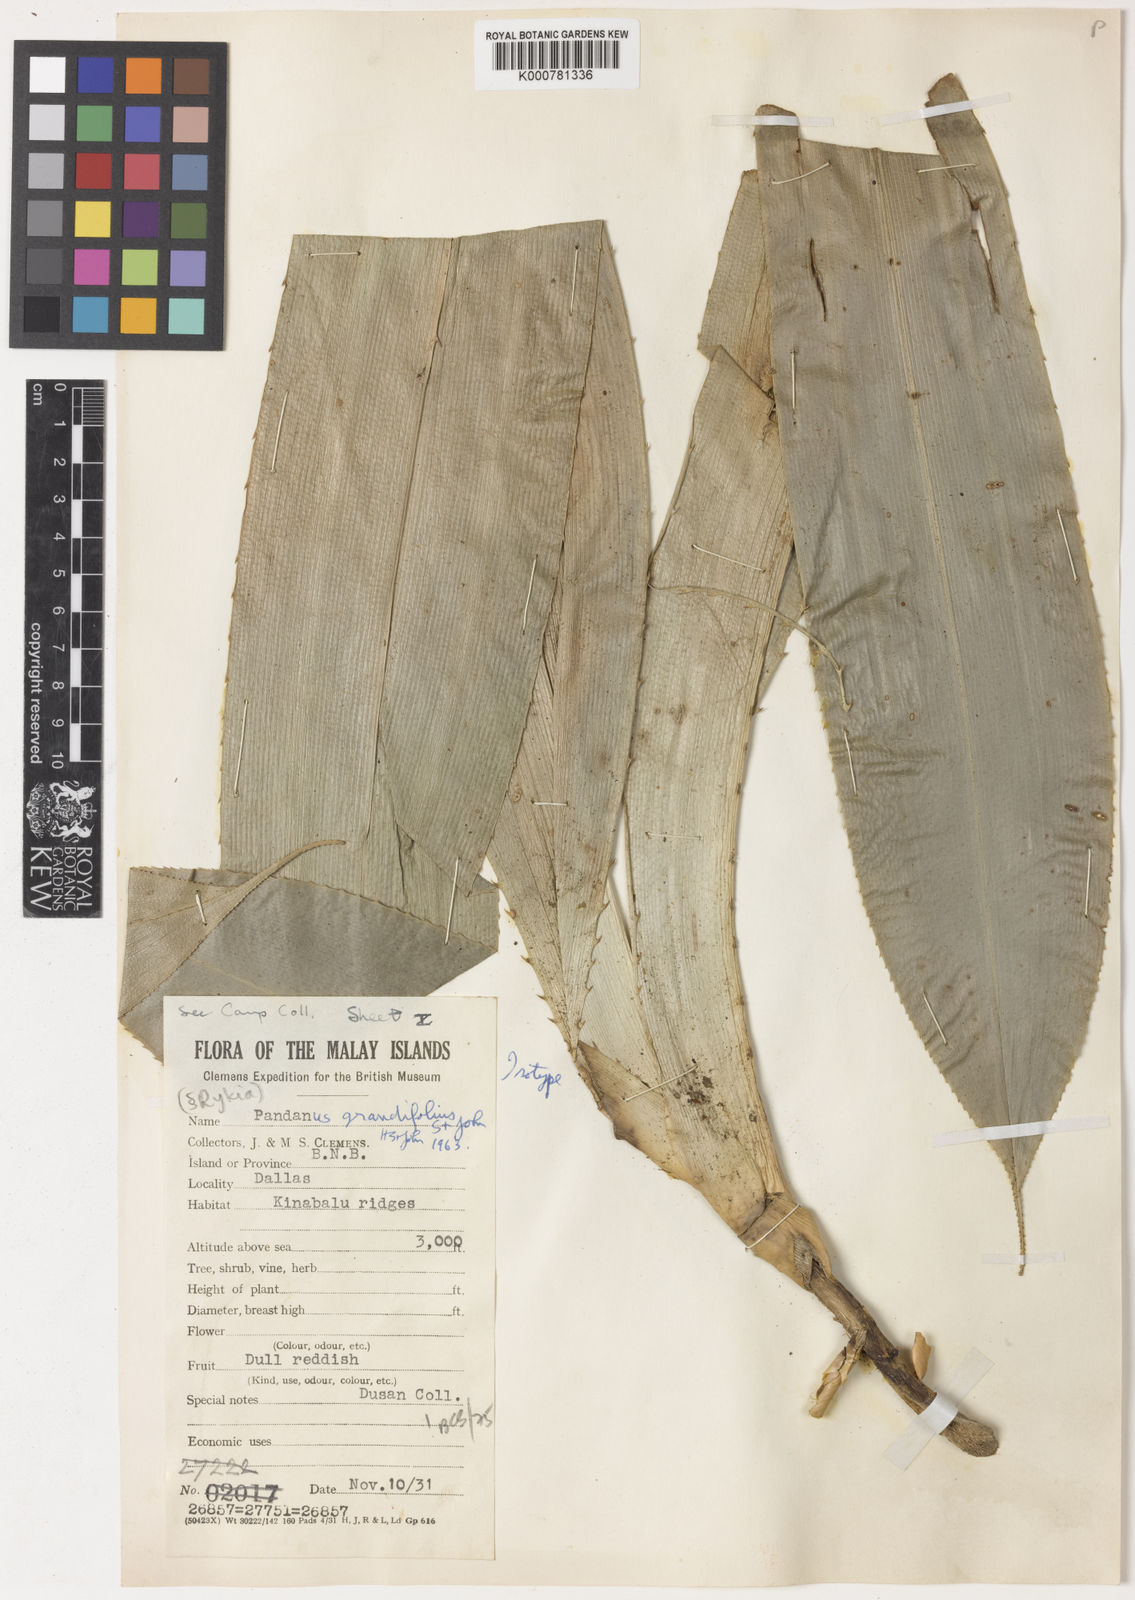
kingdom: Plantae
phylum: Tracheophyta
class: Liliopsida
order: Pandanales
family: Pandanaceae
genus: Pandanus
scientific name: Pandanus leuconotus
